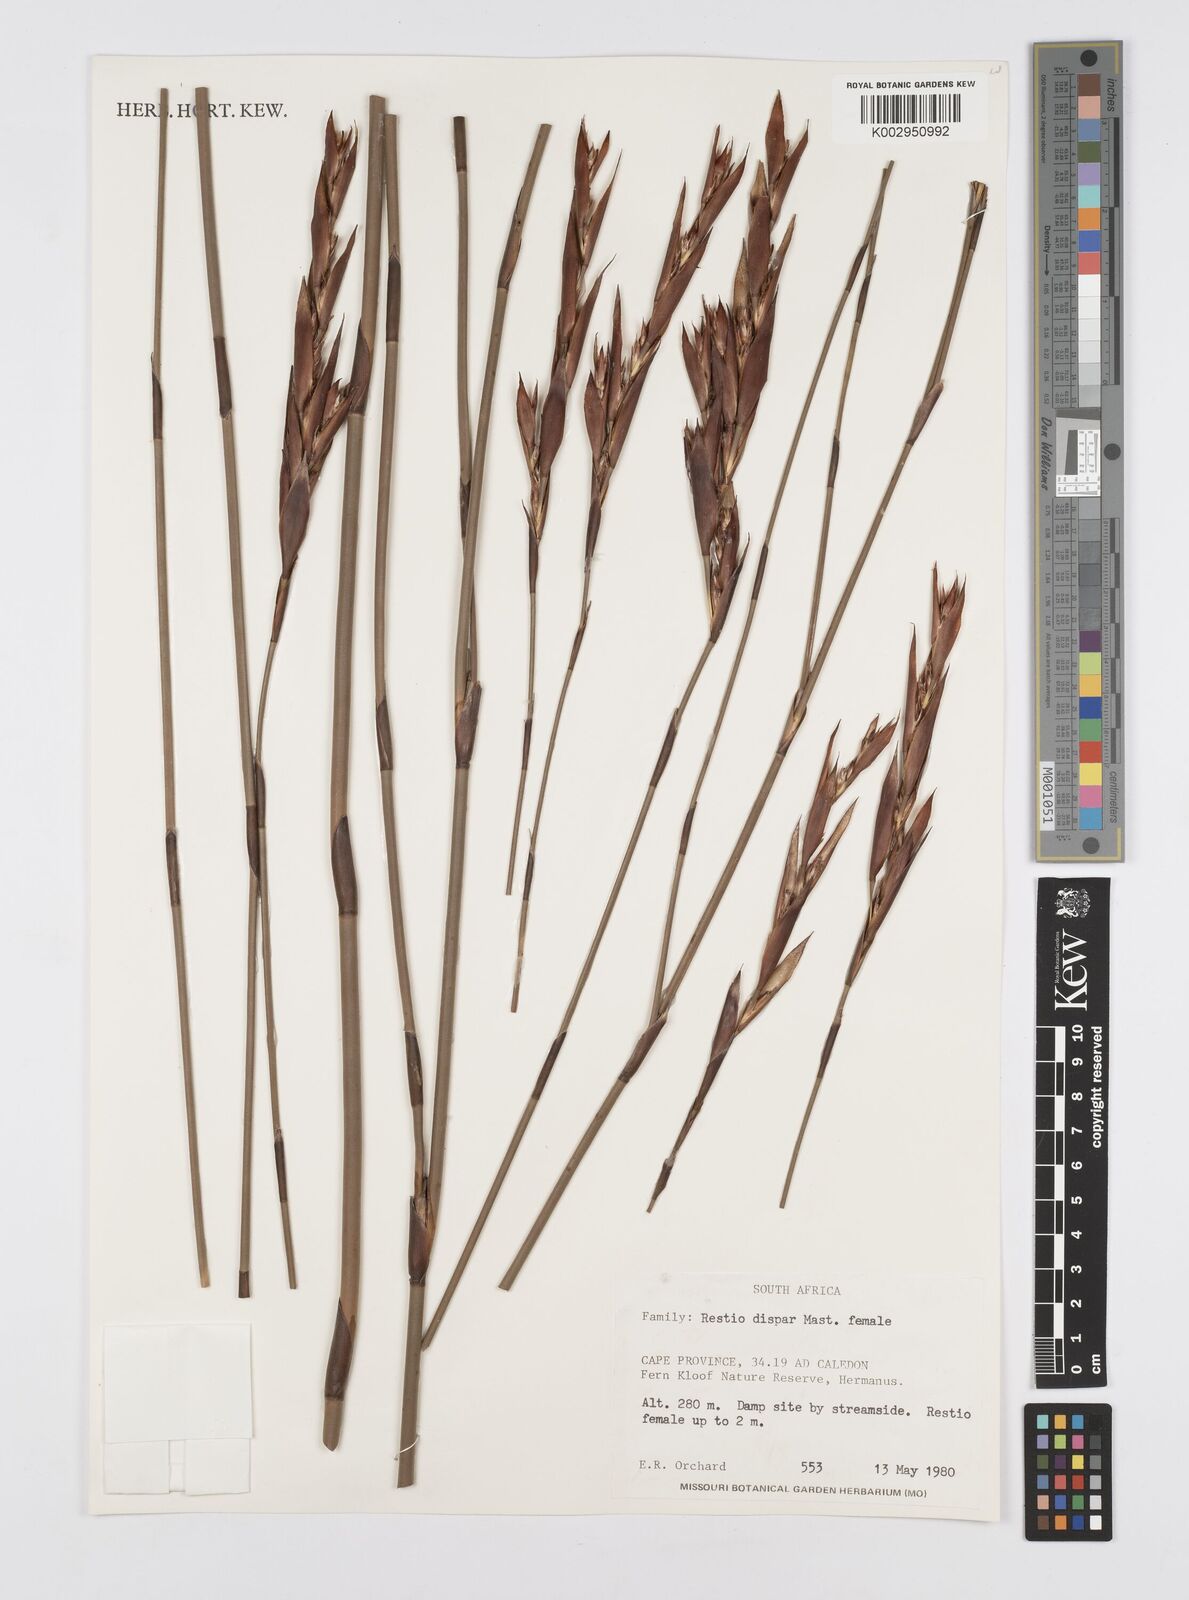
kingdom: Plantae
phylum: Tracheophyta
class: Liliopsida
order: Poales
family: Restionaceae
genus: Restio
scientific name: Restio egregius
